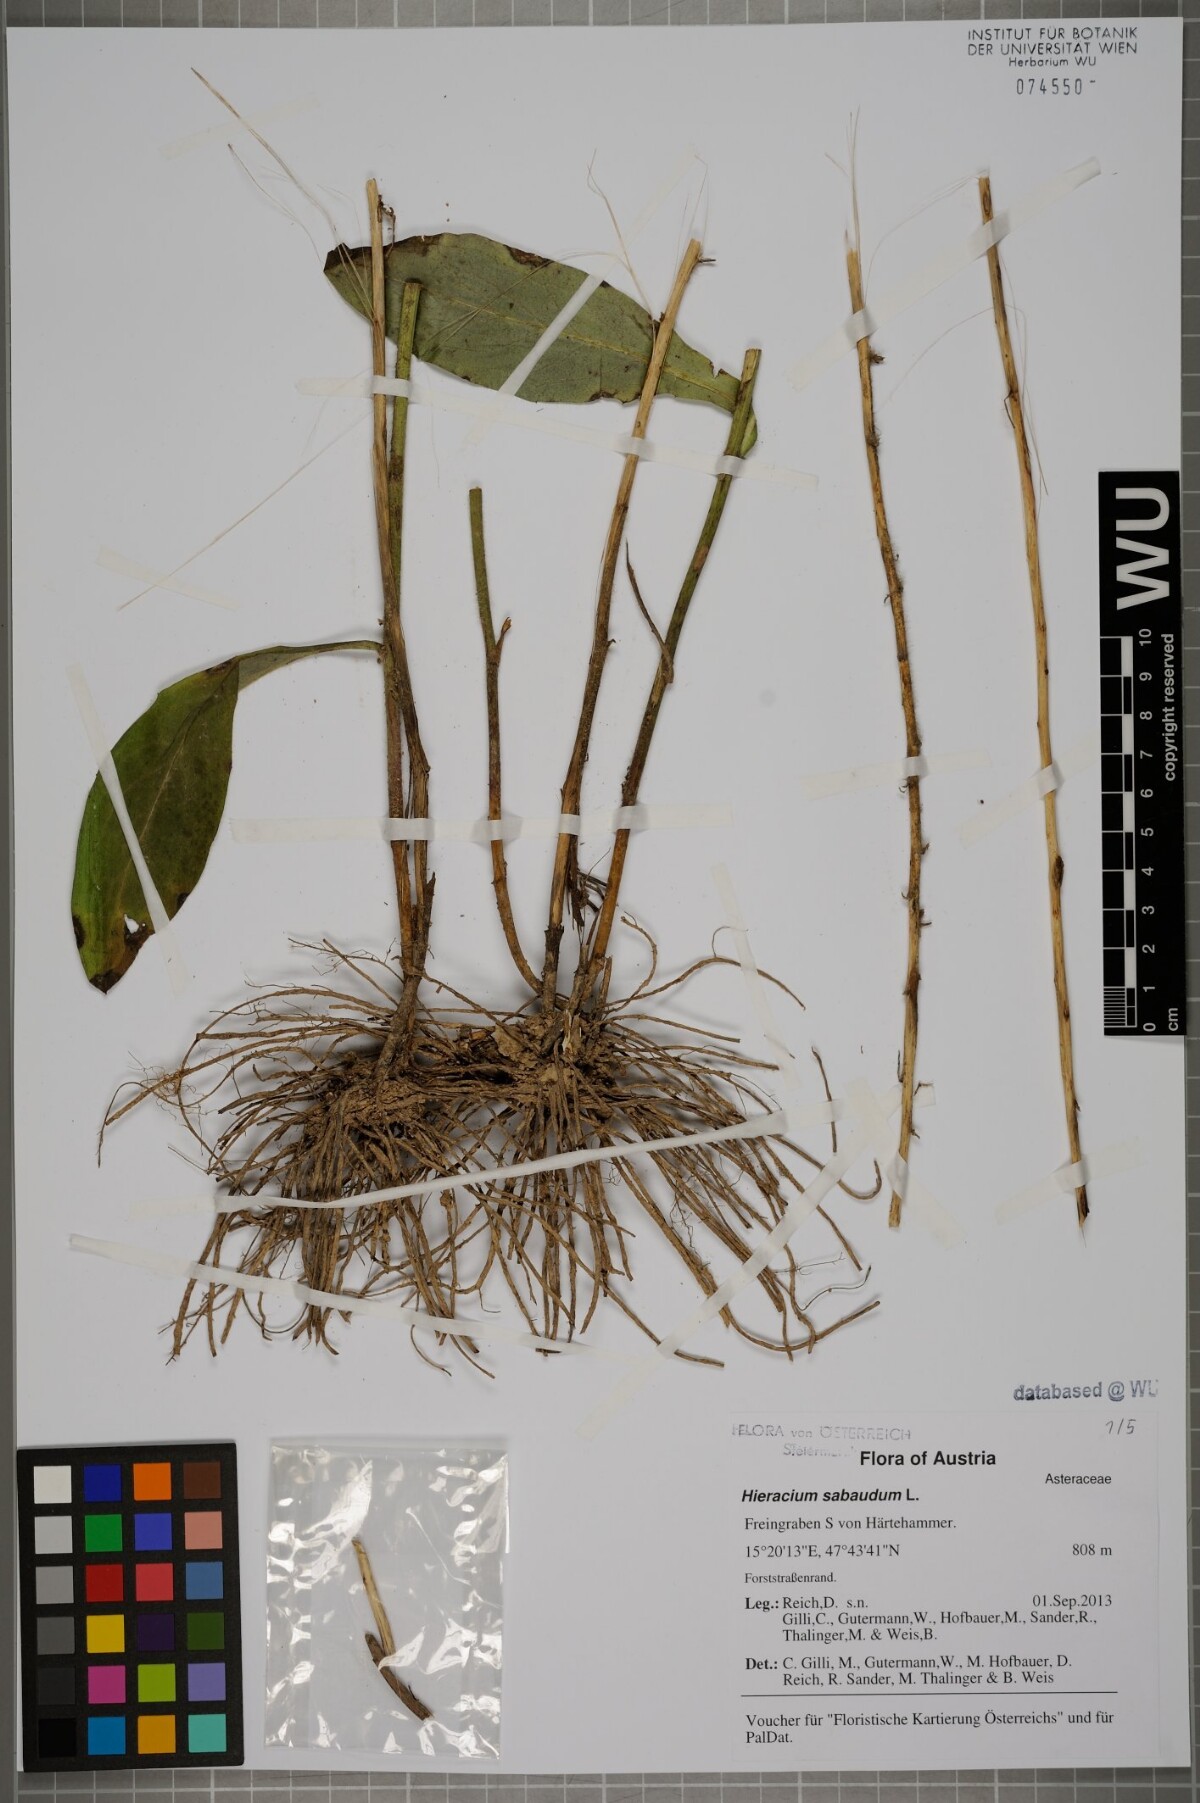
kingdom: Plantae
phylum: Tracheophyta
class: Magnoliopsida
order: Asterales
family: Asteraceae
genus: Hieracium
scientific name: Hieracium sabaudum
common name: New england hawkweed
